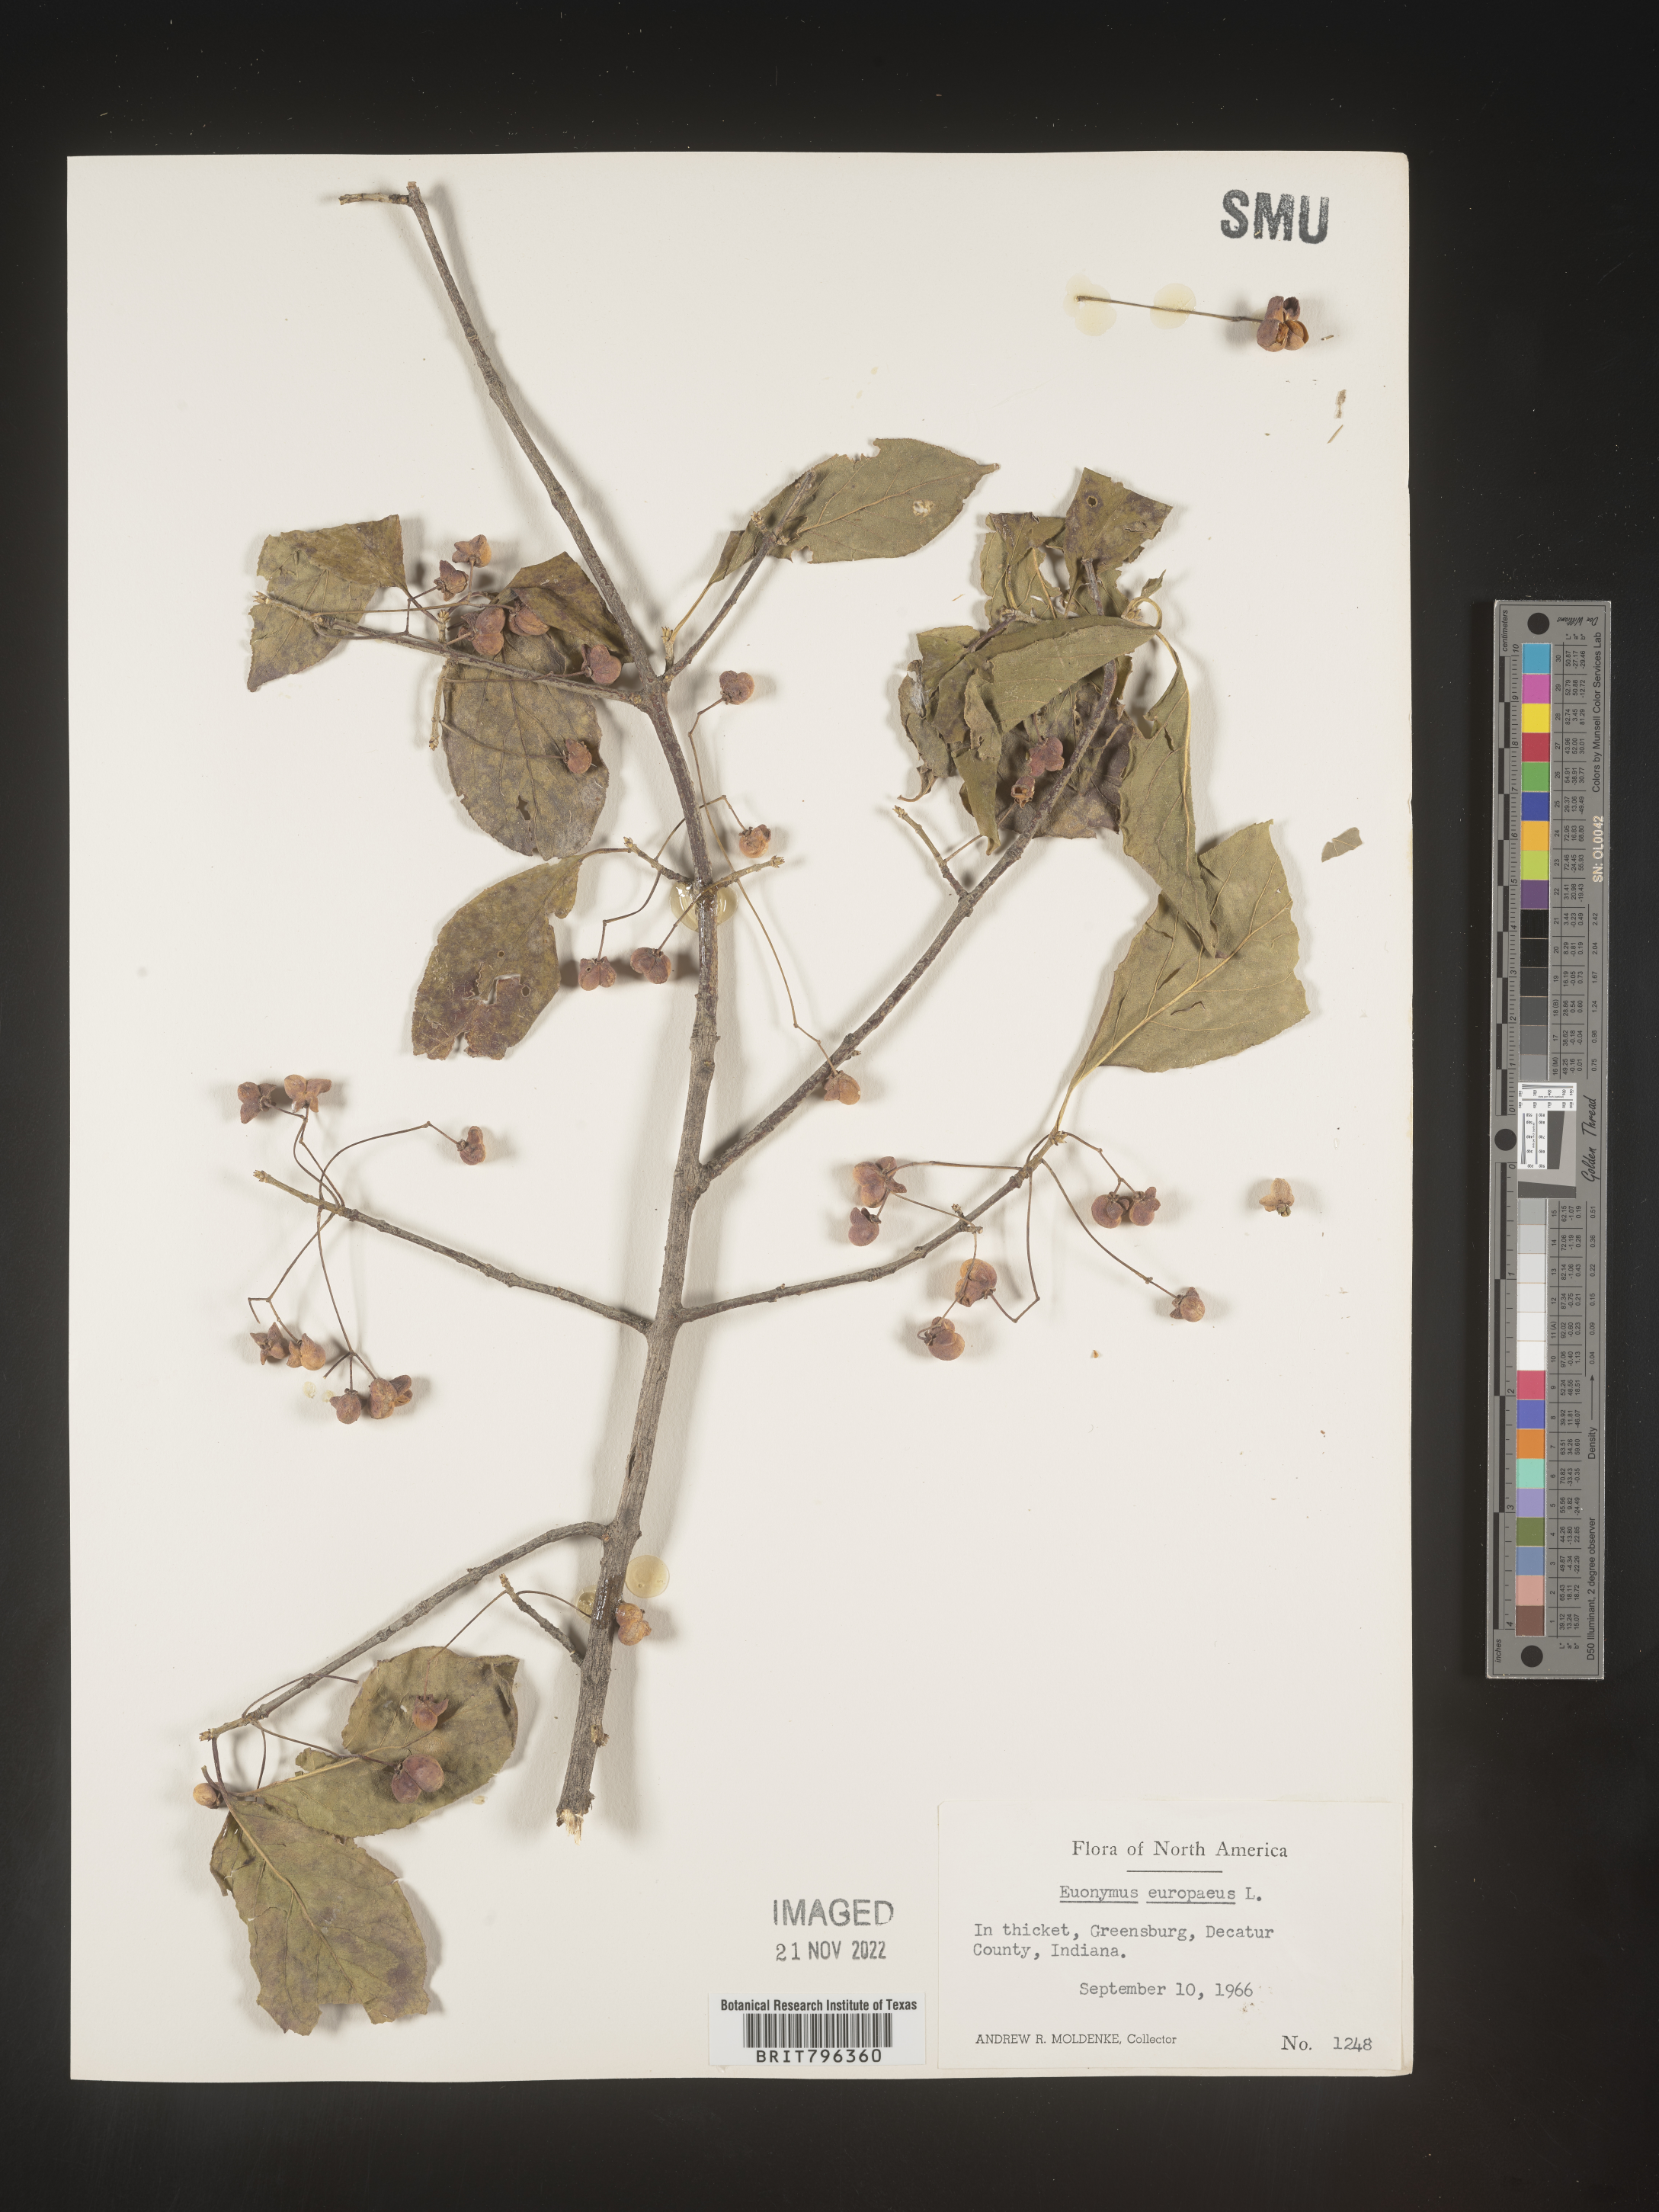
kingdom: Plantae
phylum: Tracheophyta
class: Magnoliopsida
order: Celastrales
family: Celastraceae
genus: Euonymus
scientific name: Euonymus europaeus
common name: Spindle
